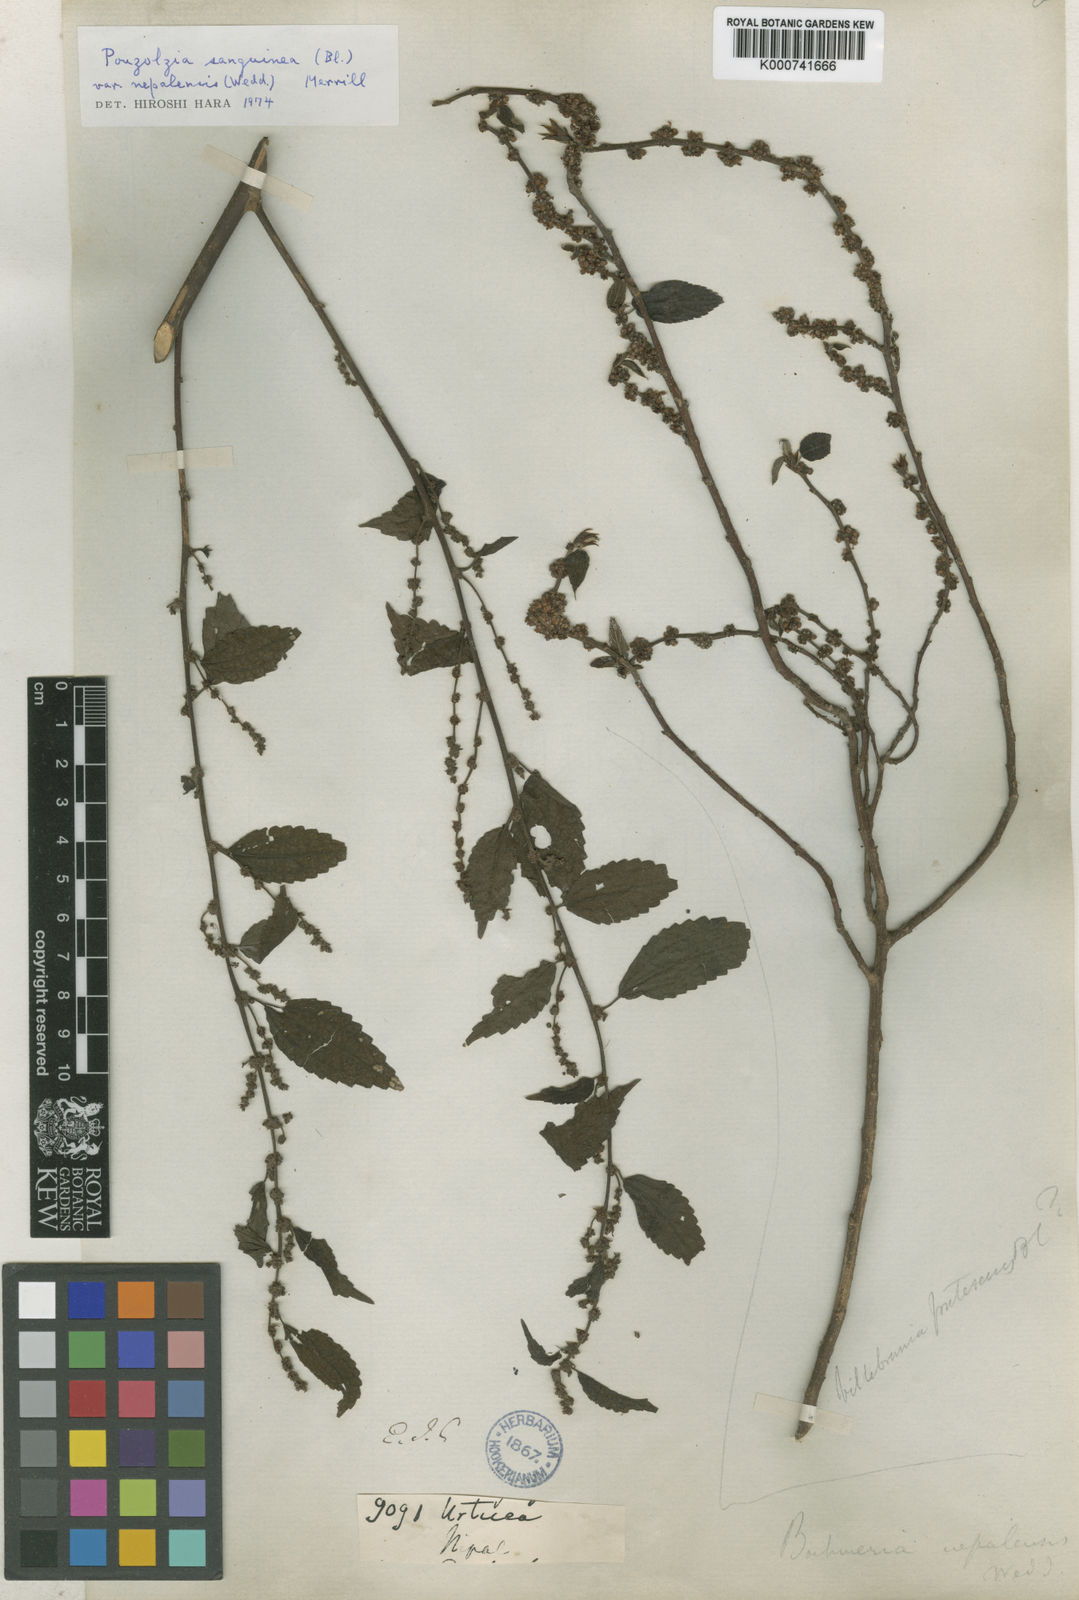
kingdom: Plantae
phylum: Tracheophyta
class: Magnoliopsida
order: Rosales
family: Urticaceae
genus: Oreocnide
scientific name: Oreocnide frutescens
